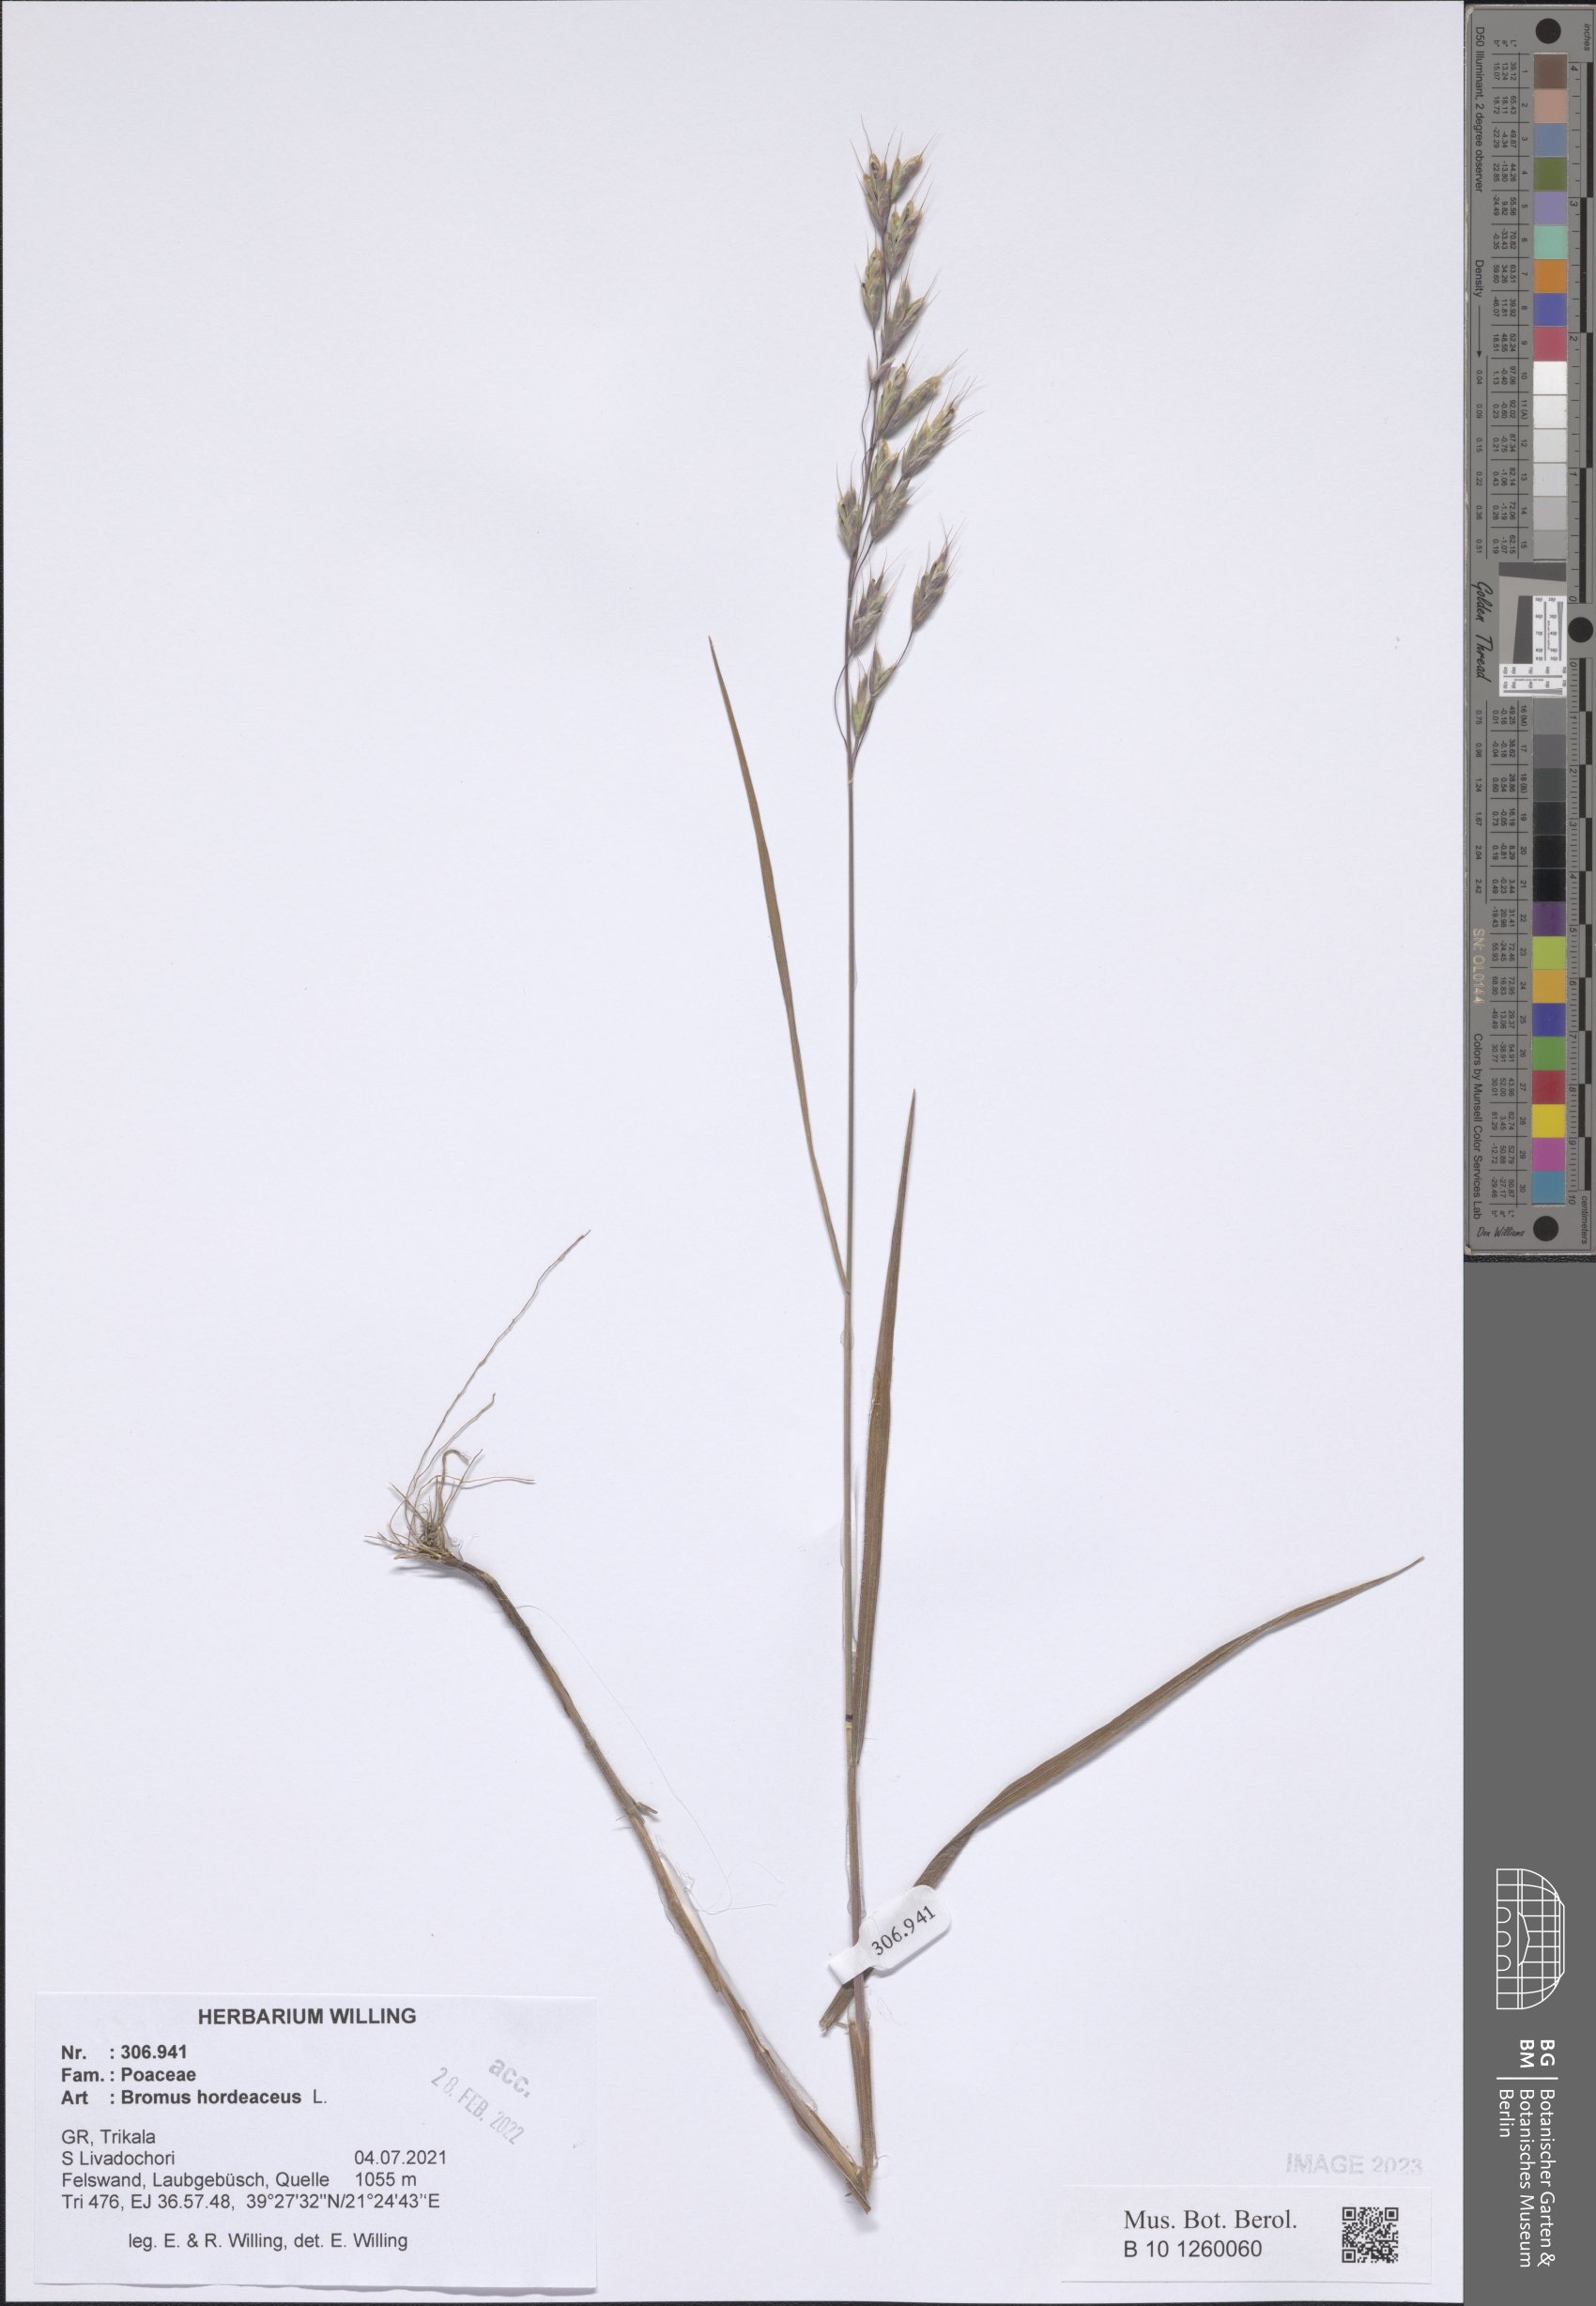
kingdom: Plantae
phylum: Tracheophyta
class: Liliopsida
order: Poales
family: Poaceae
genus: Bromus
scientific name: Bromus hordeaceus
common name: Soft brome
